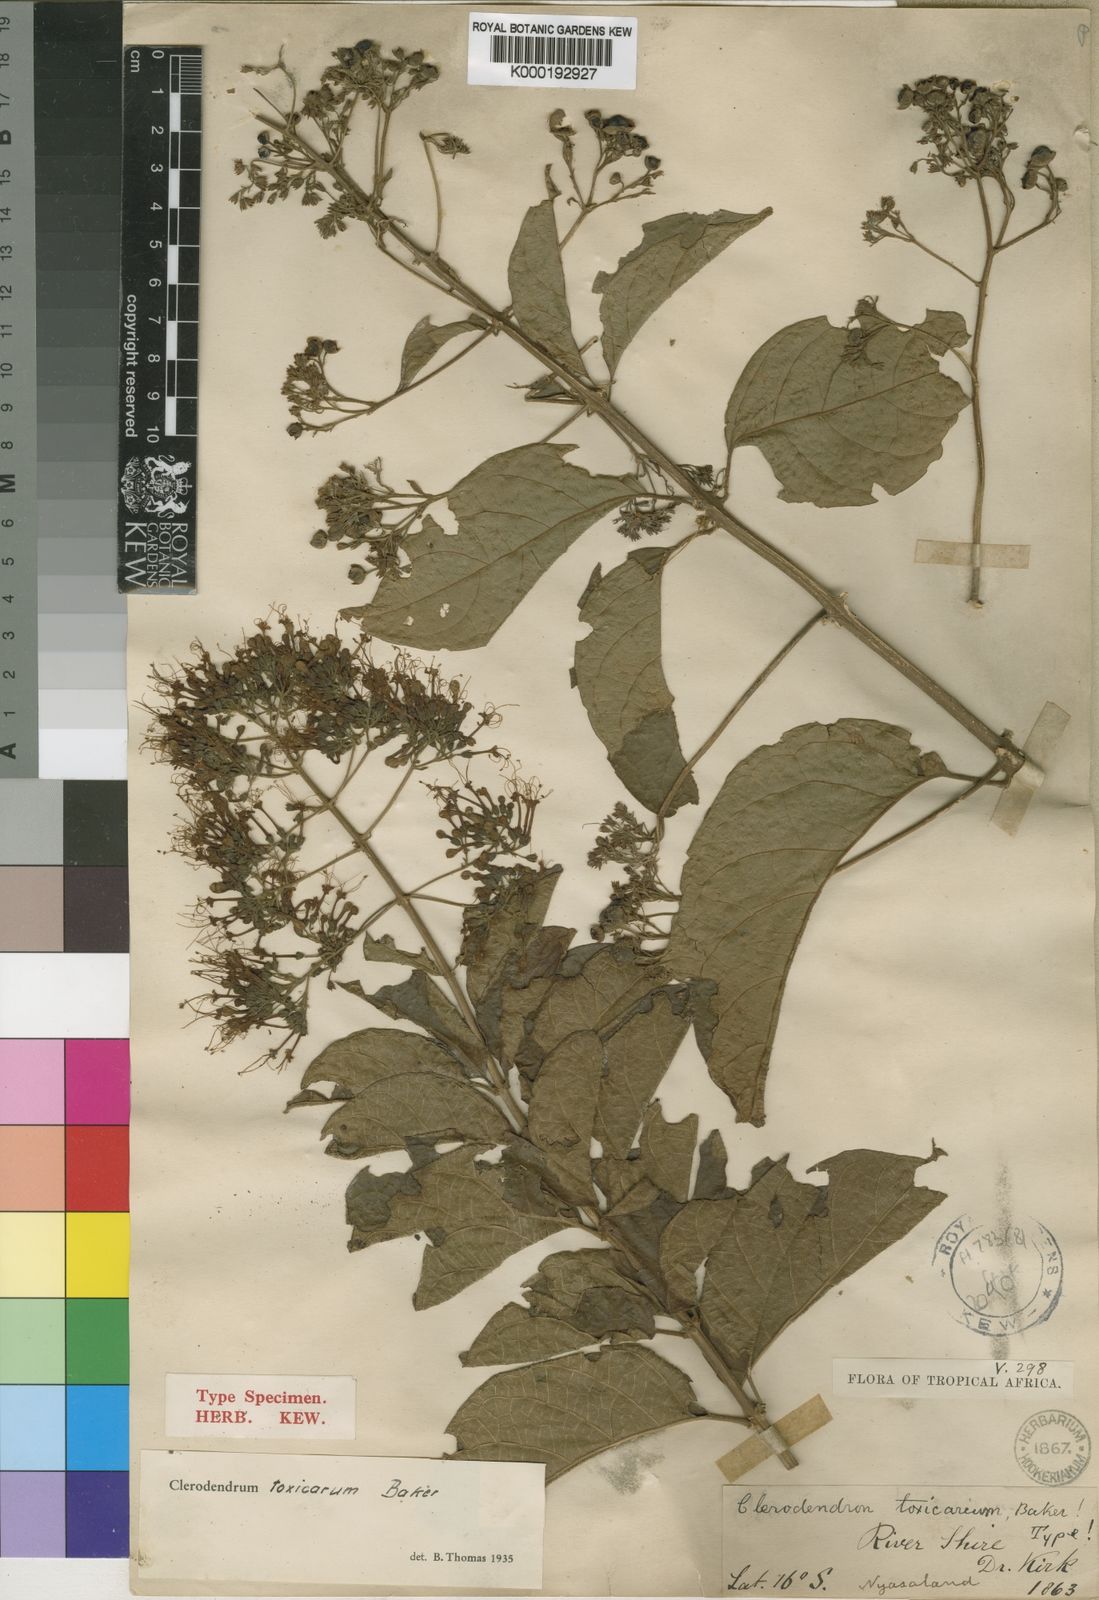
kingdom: Plantae
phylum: Tracheophyta
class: Magnoliopsida
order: Lamiales
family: Lamiaceae
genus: Clerodendrum
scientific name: Clerodendrum toxicarium
